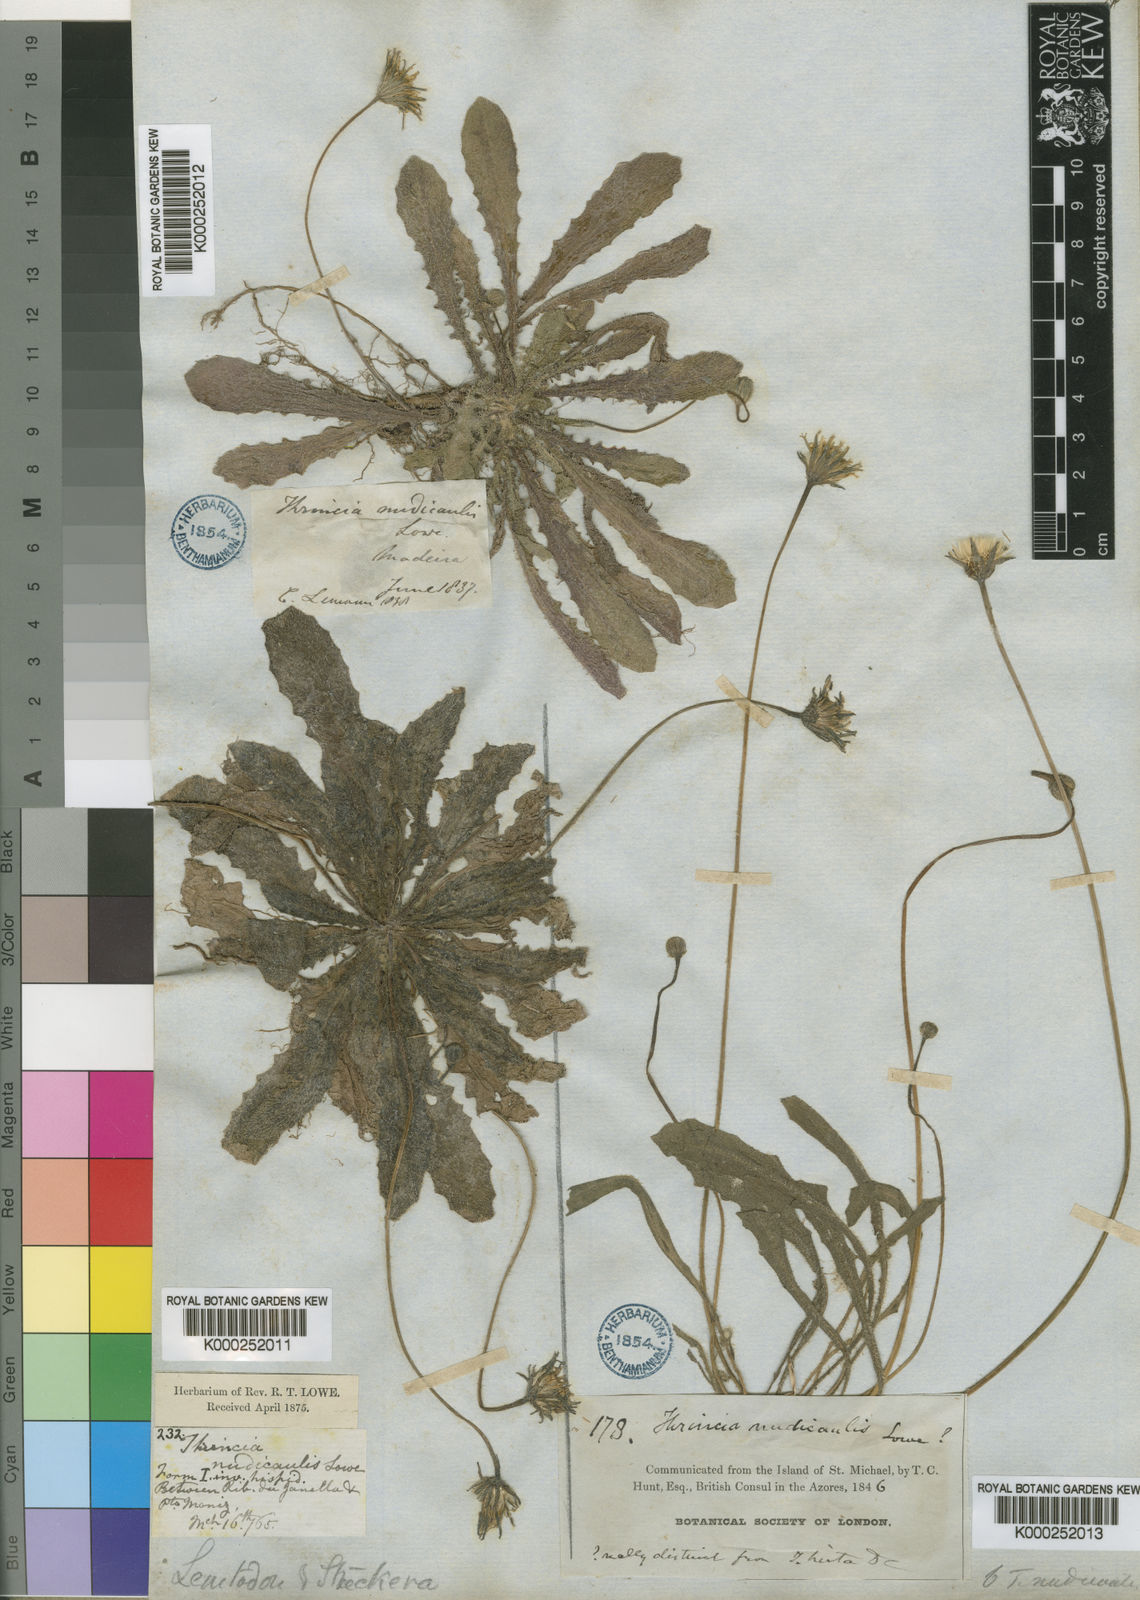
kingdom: Plantae
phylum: Tracheophyta
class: Magnoliopsida
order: Asterales
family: Asteraceae
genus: Leontodon
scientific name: Leontodon
